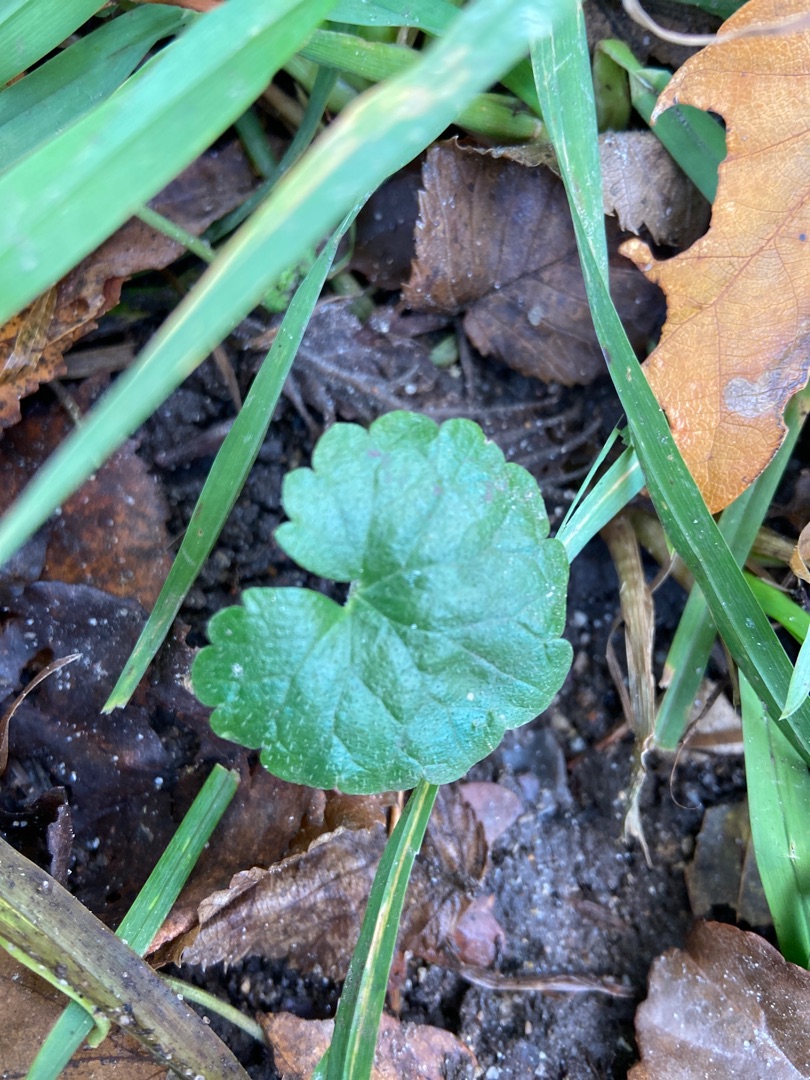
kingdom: Plantae
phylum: Tracheophyta
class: Magnoliopsida
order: Lamiales
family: Lamiaceae
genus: Glechoma
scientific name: Glechoma hederacea
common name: Korsknap
